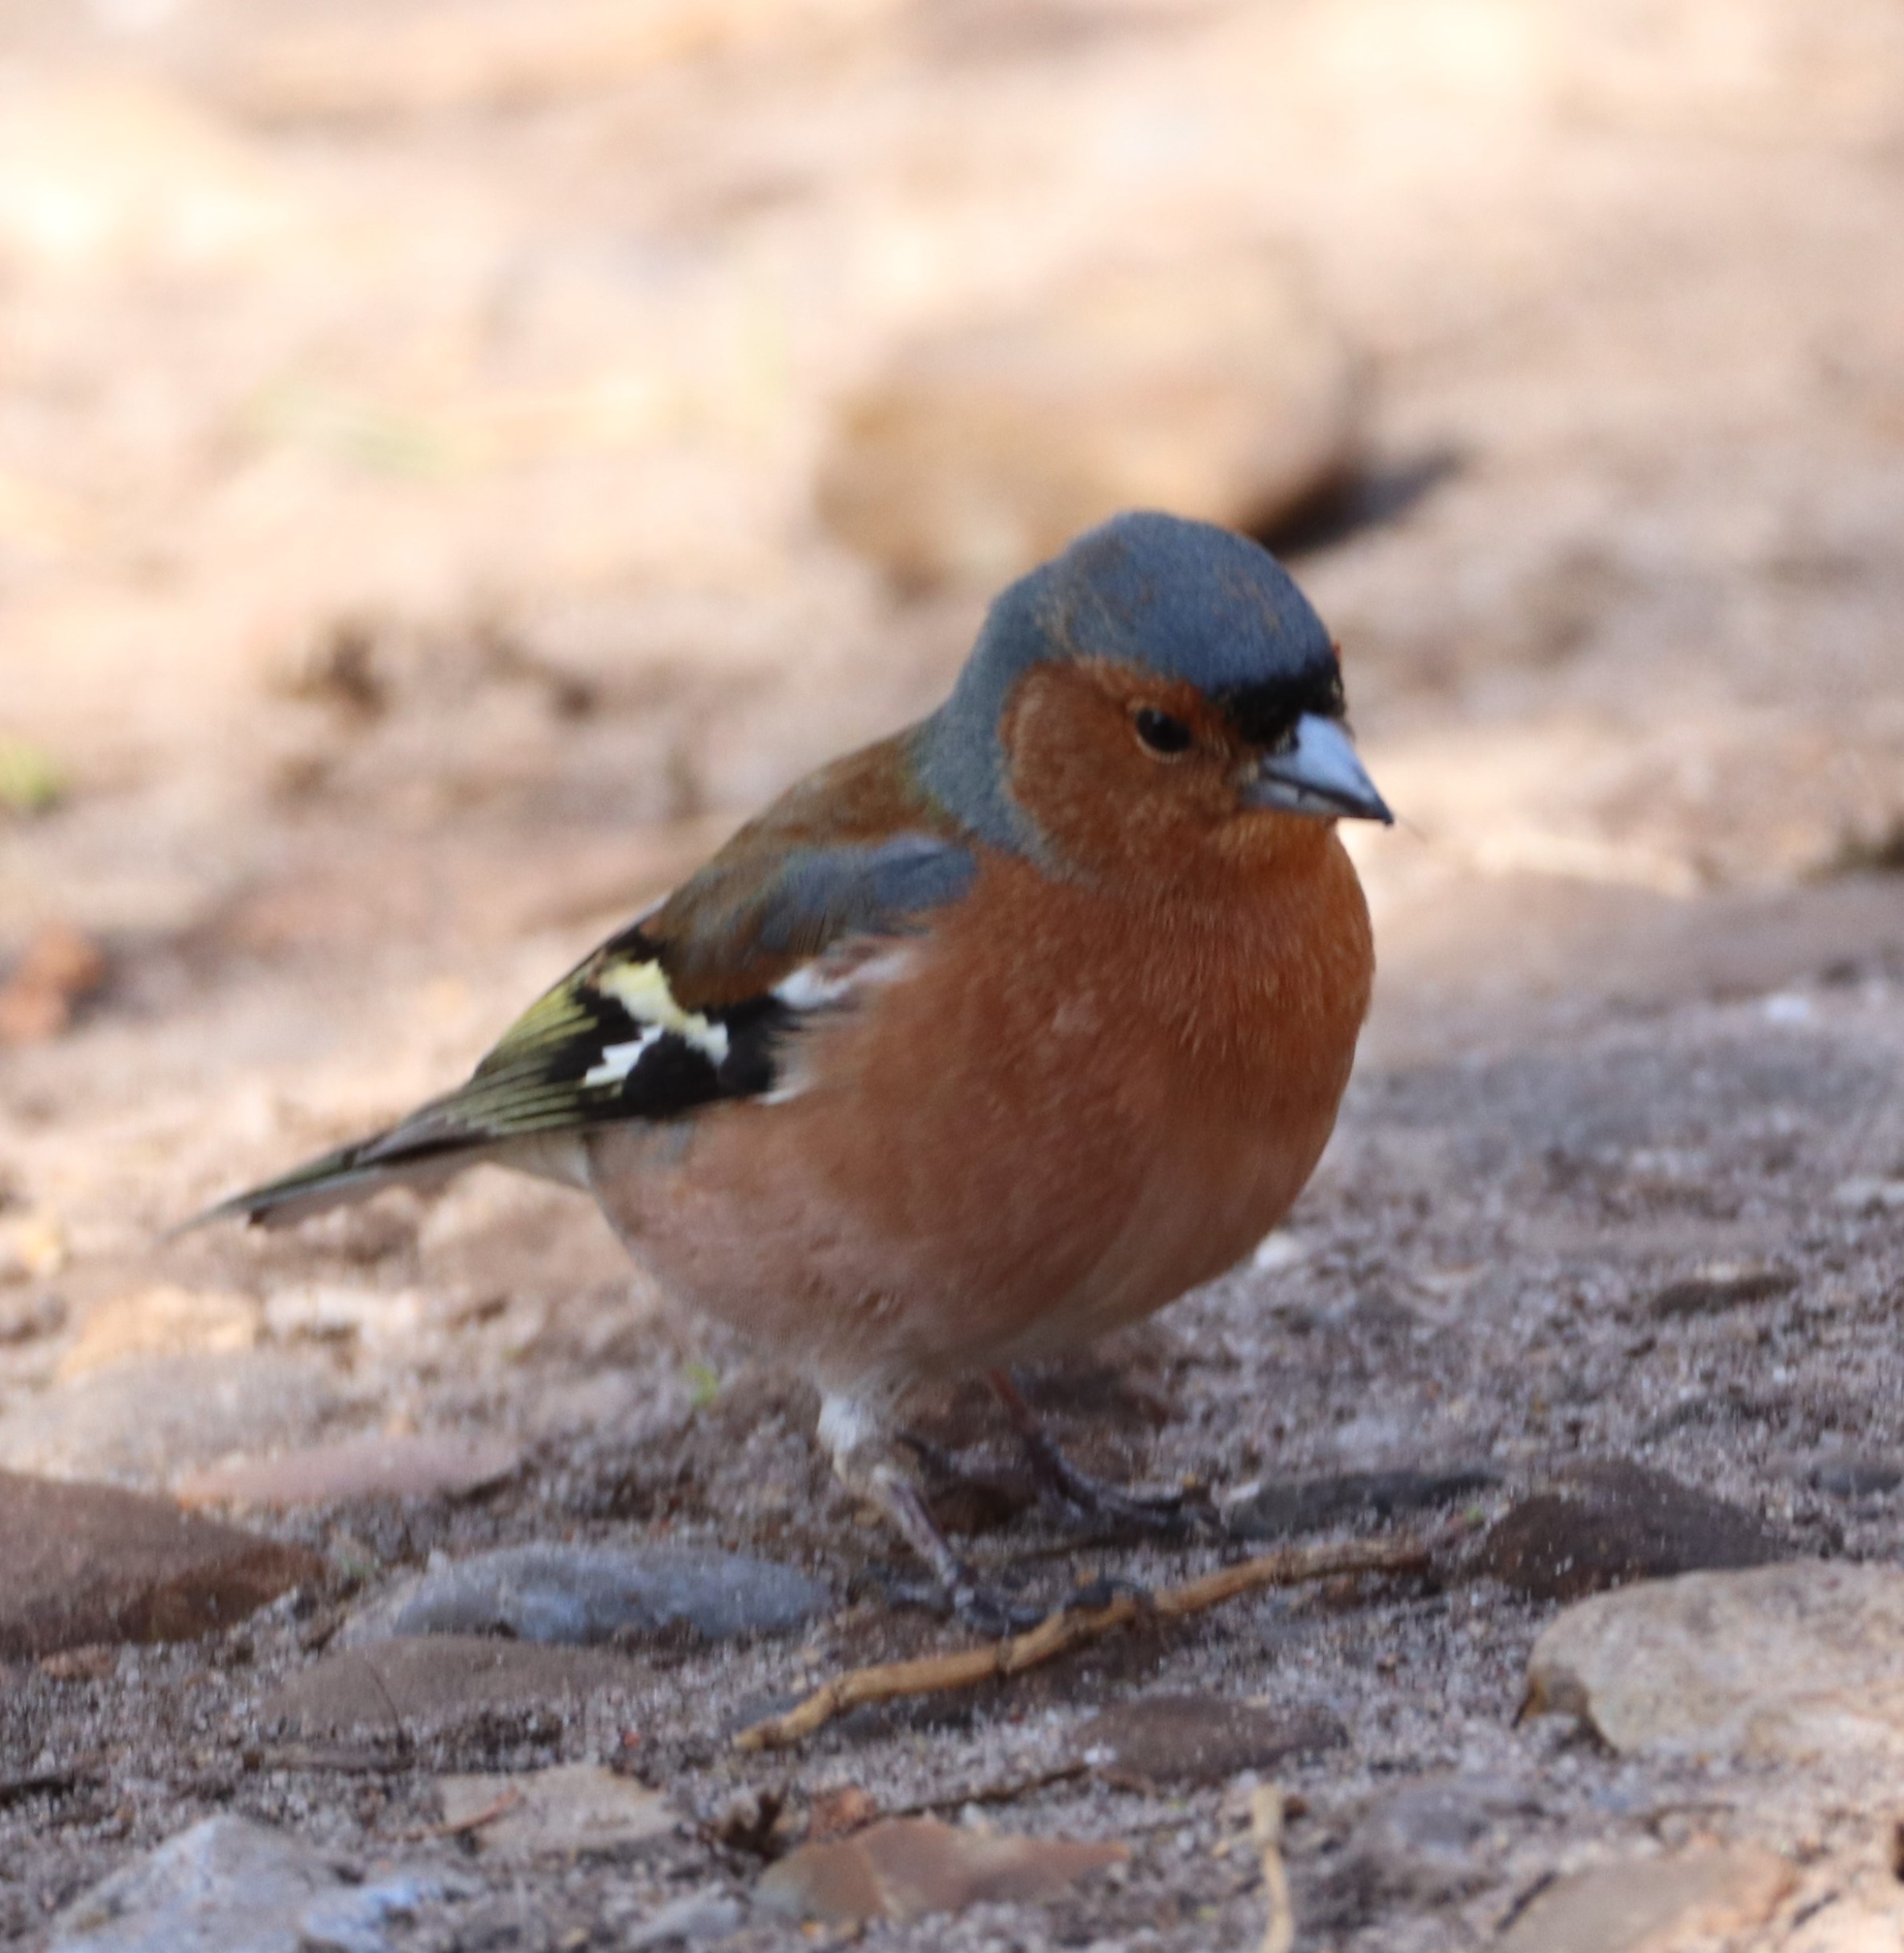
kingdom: Animalia
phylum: Chordata
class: Aves
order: Passeriformes
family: Fringillidae
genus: Fringilla
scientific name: Fringilla coelebs
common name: Bogfinke
